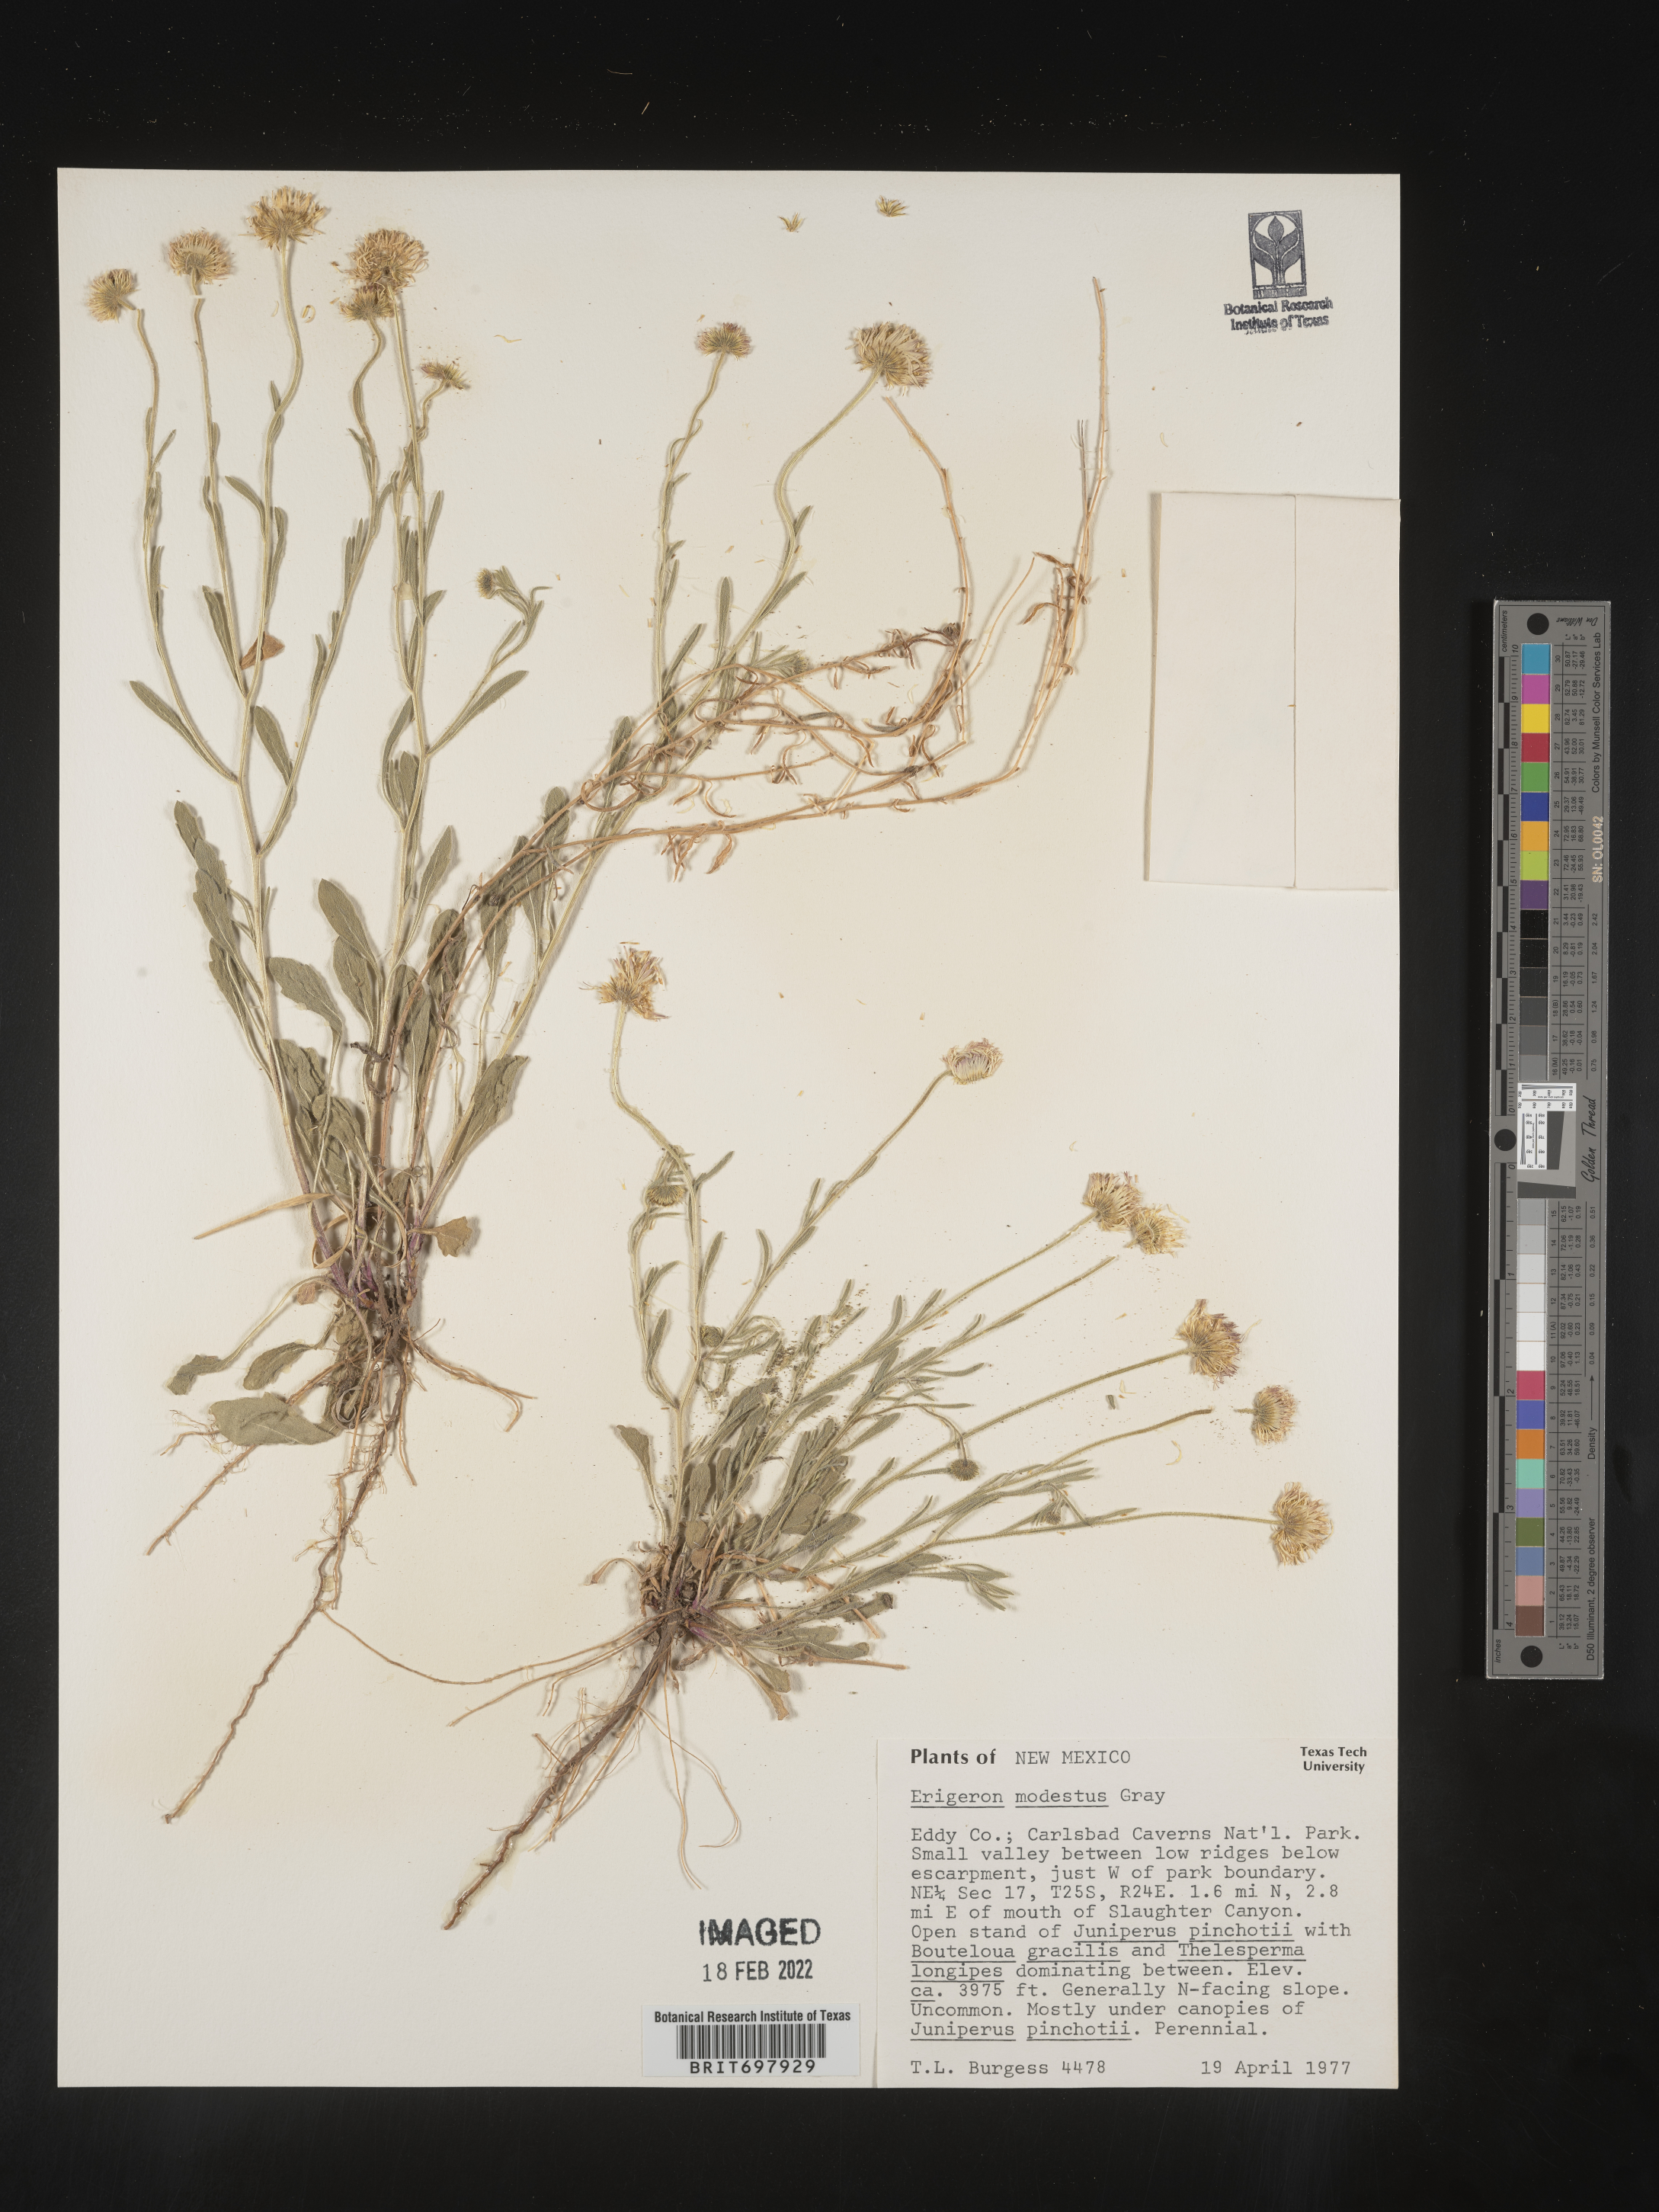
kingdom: Plantae
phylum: Tracheophyta
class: Magnoliopsida
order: Asterales
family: Asteraceae
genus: Erigeron
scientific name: Erigeron modestus
